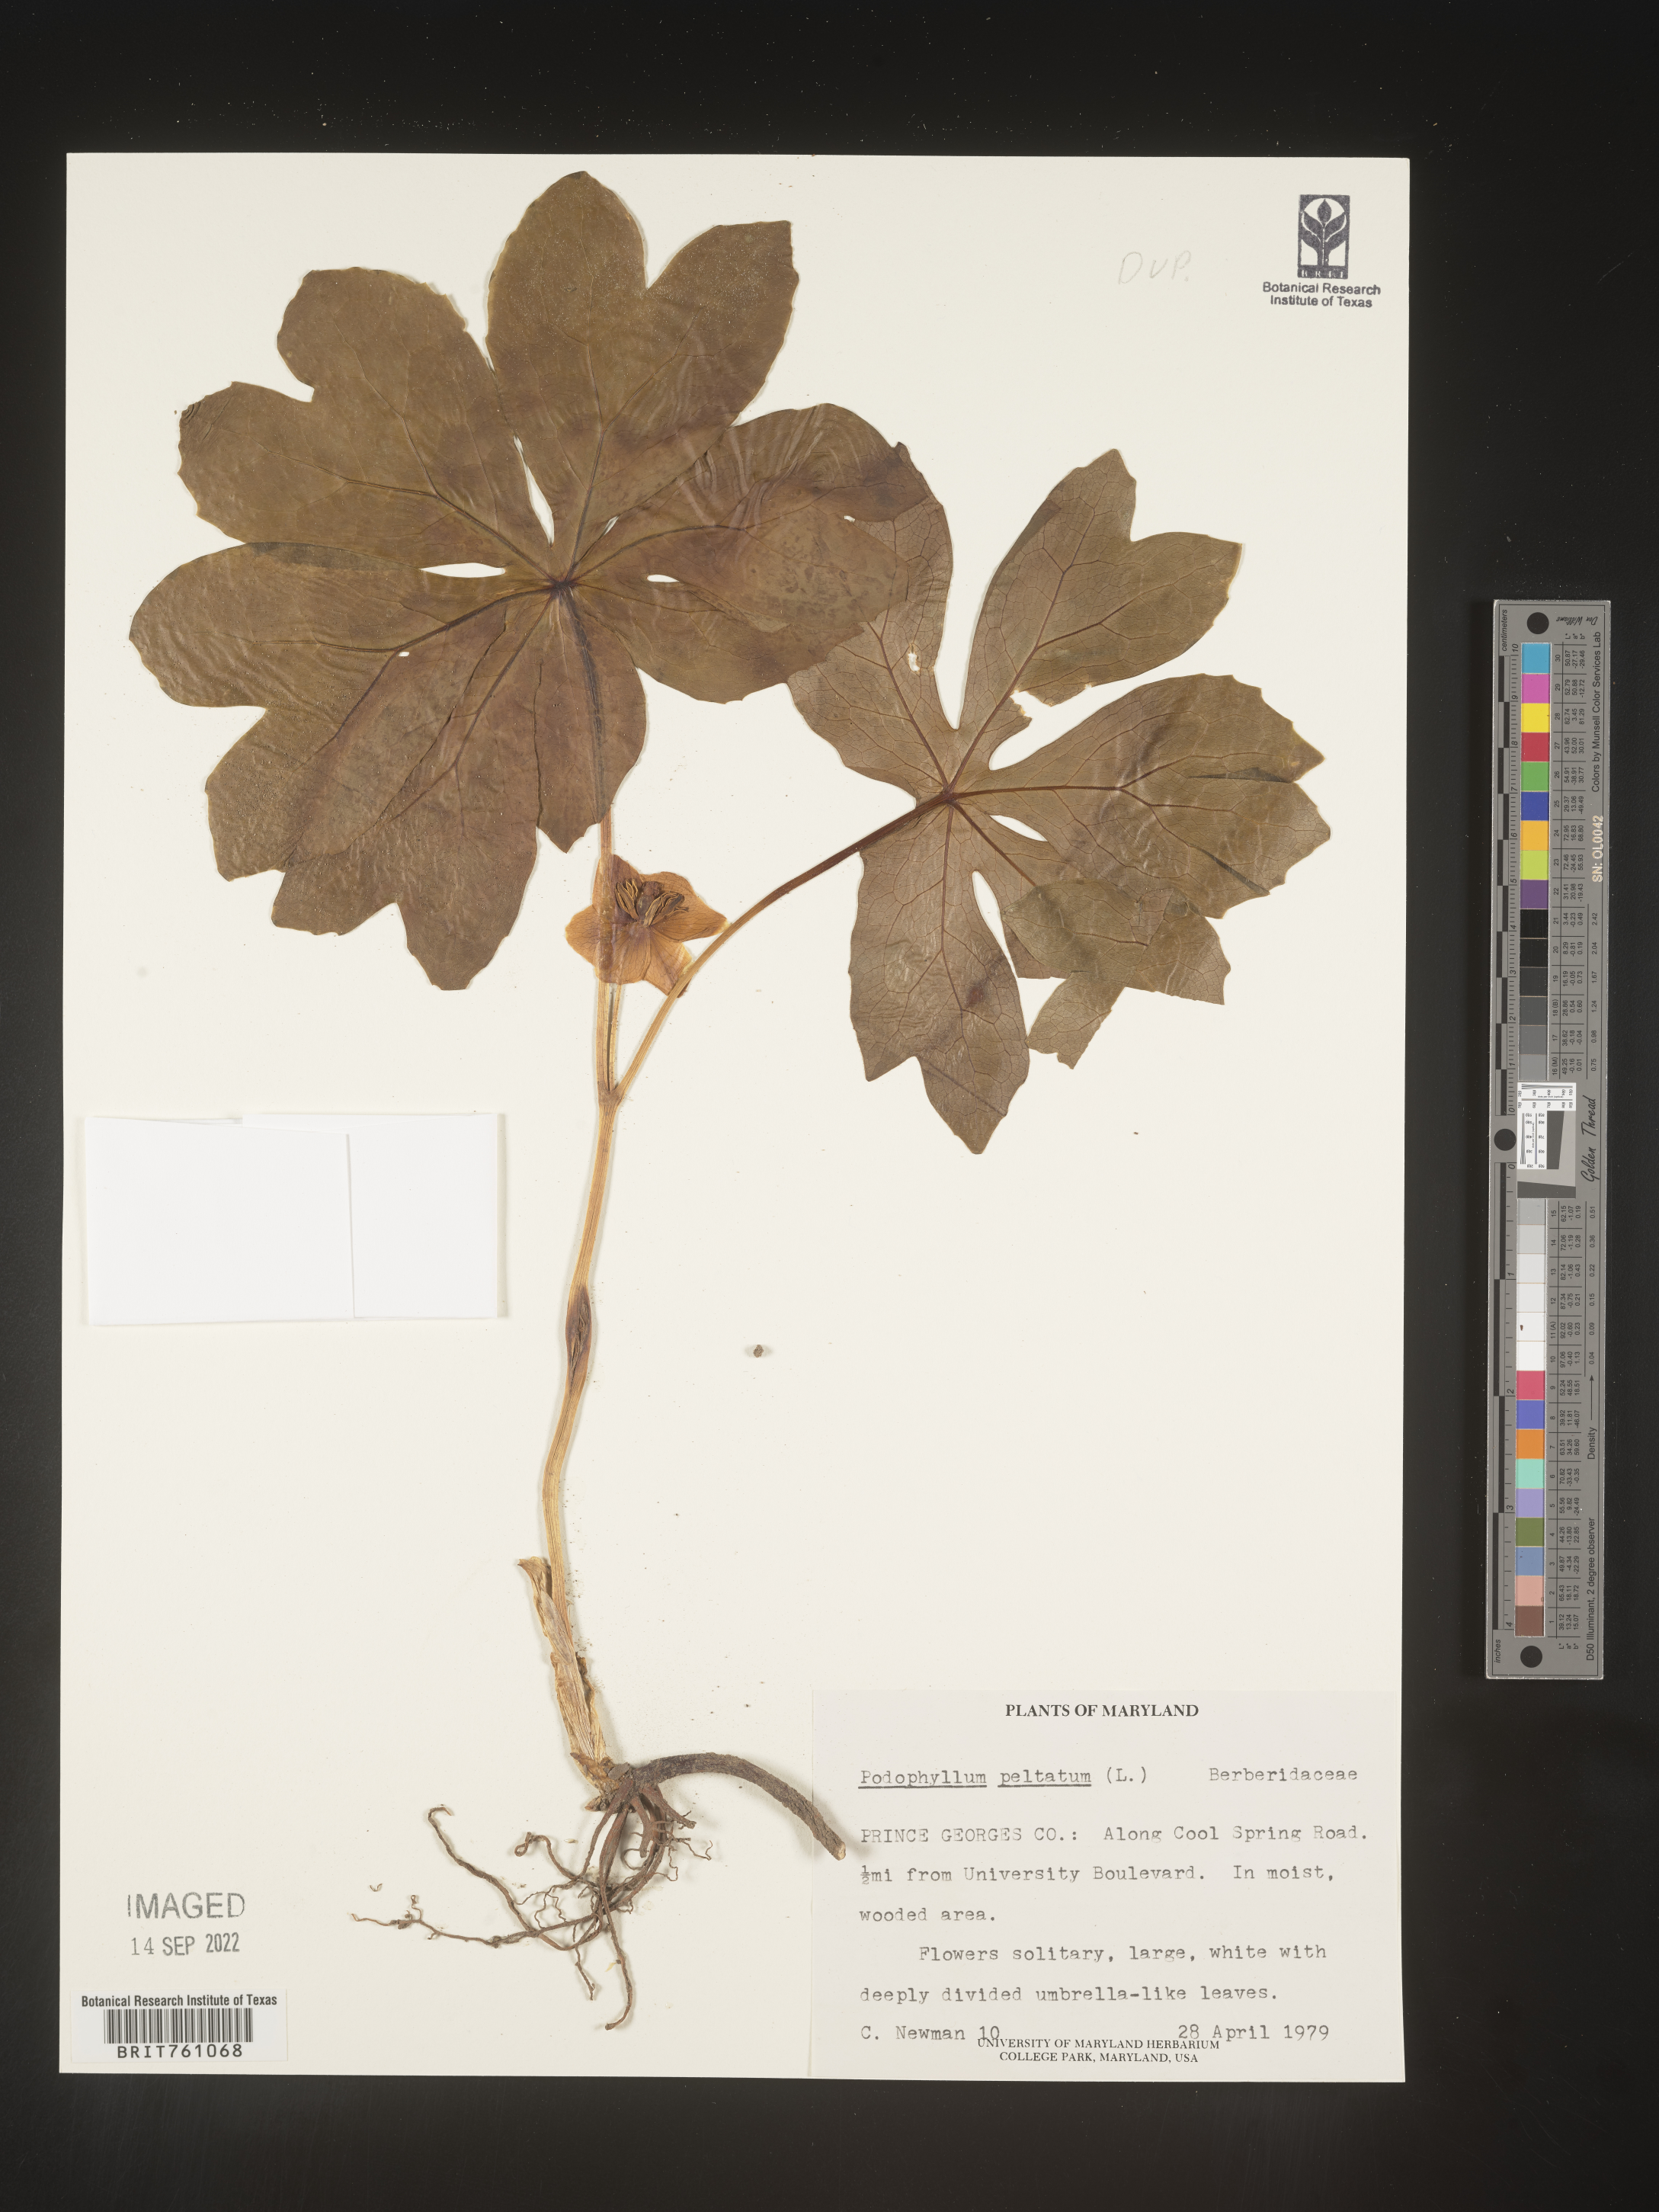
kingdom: Plantae
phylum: Tracheophyta
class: Magnoliopsida
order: Ranunculales
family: Berberidaceae
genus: Podophyllum
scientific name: Podophyllum peltatum
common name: Wild mandrake
